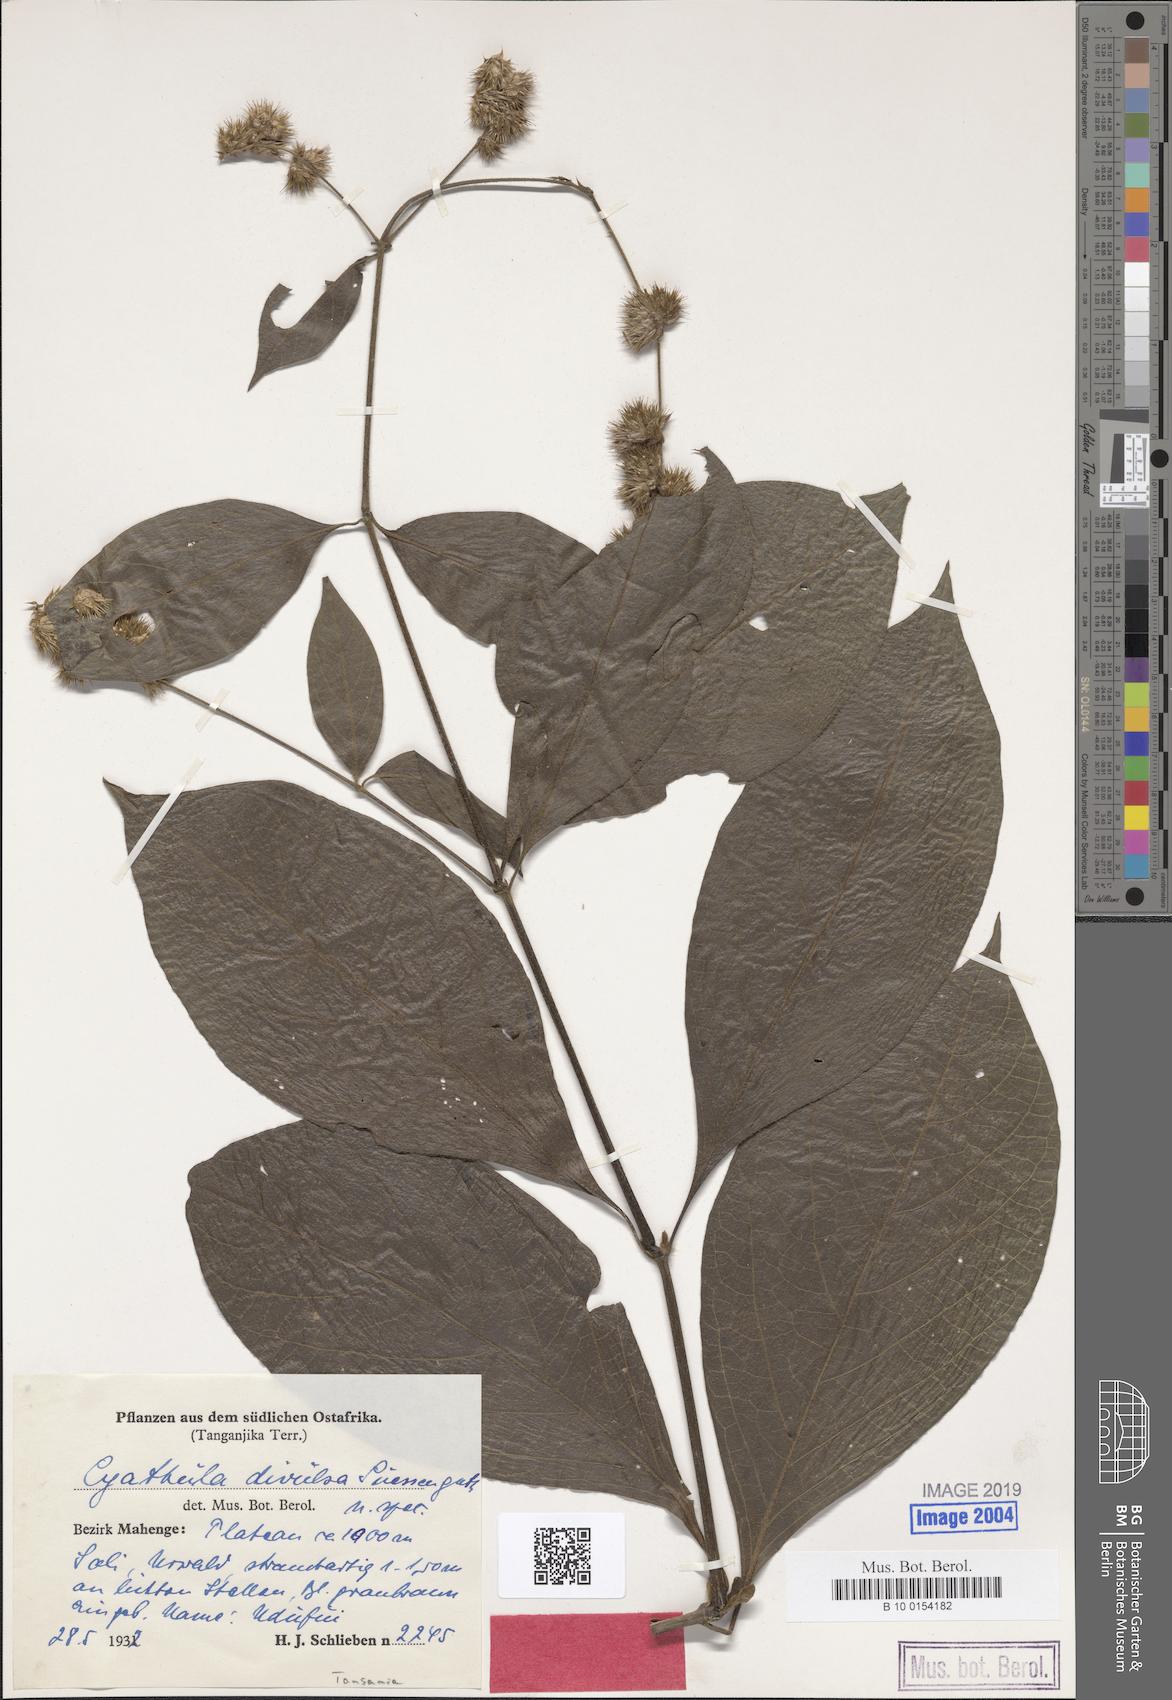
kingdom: Plantae
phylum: Tracheophyta
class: Magnoliopsida
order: Caryophyllales
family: Amaranthaceae
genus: Cyathula
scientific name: Cyathula divulsa
